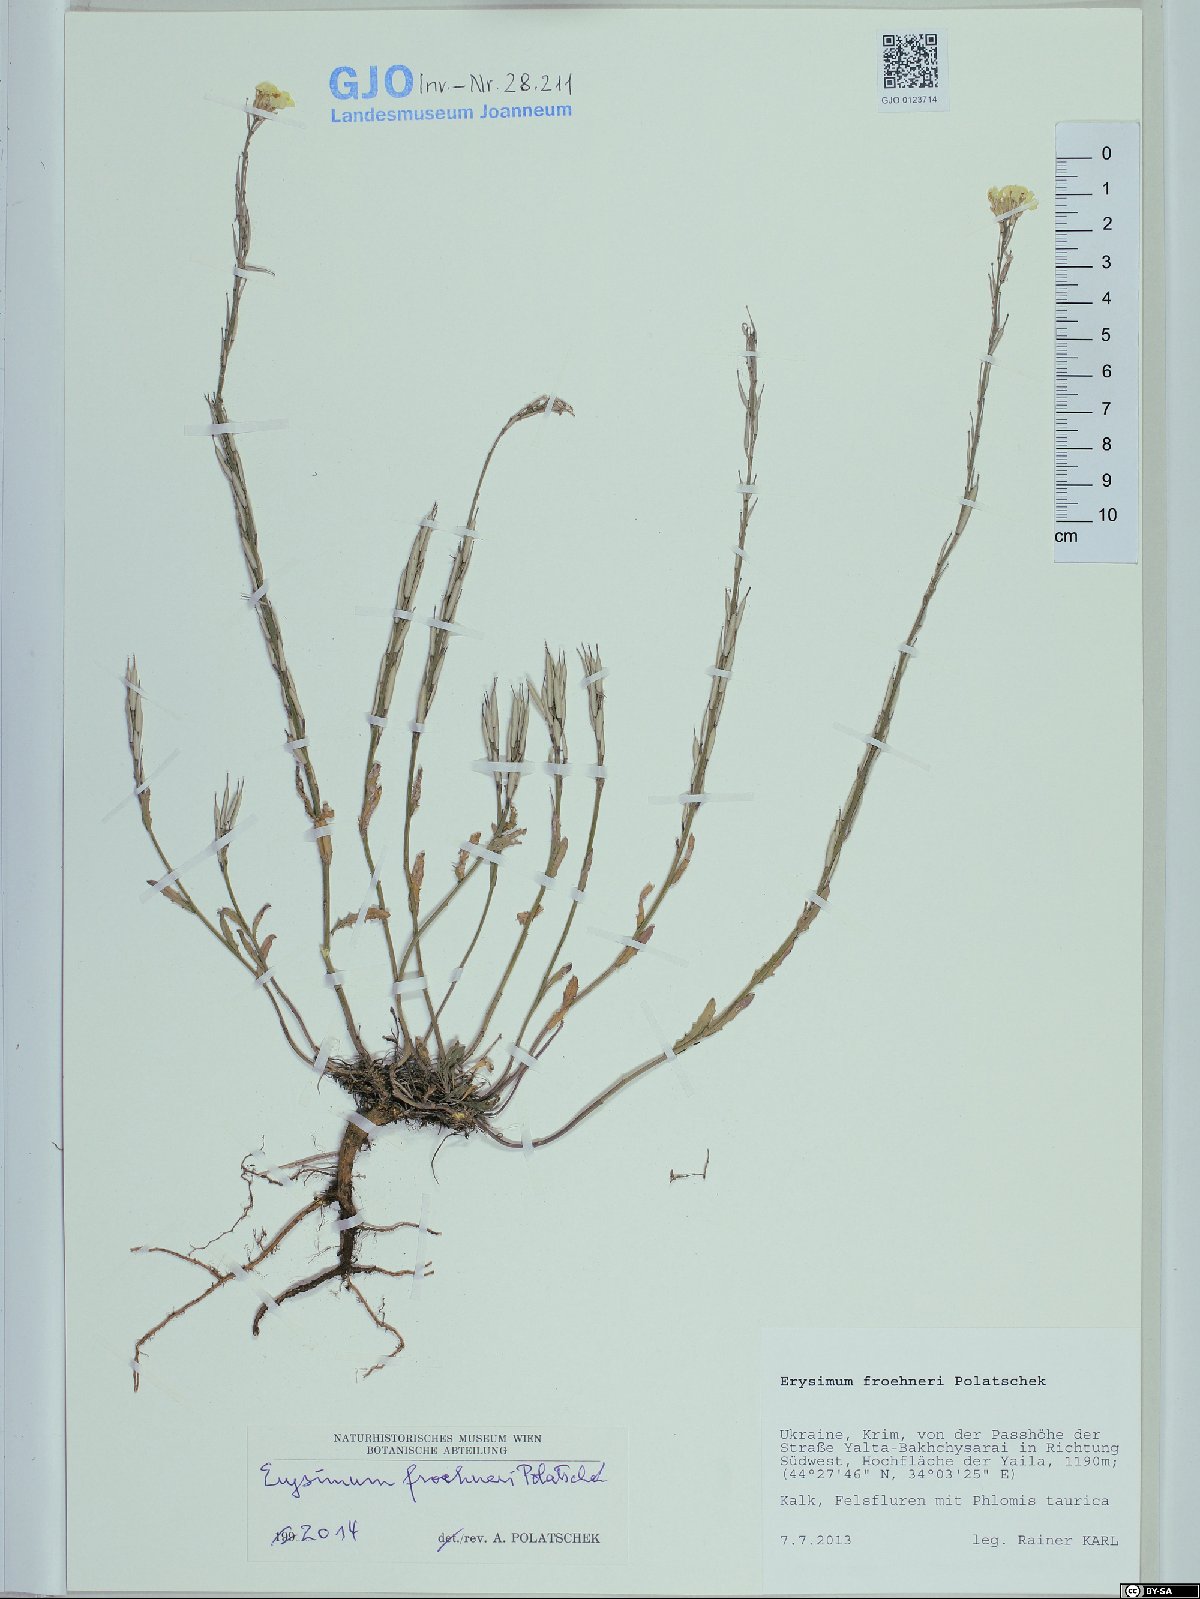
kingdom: Plantae
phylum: Tracheophyta
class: Magnoliopsida
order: Brassicales
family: Brassicaceae
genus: Erysimum
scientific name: Erysimum froehneri
